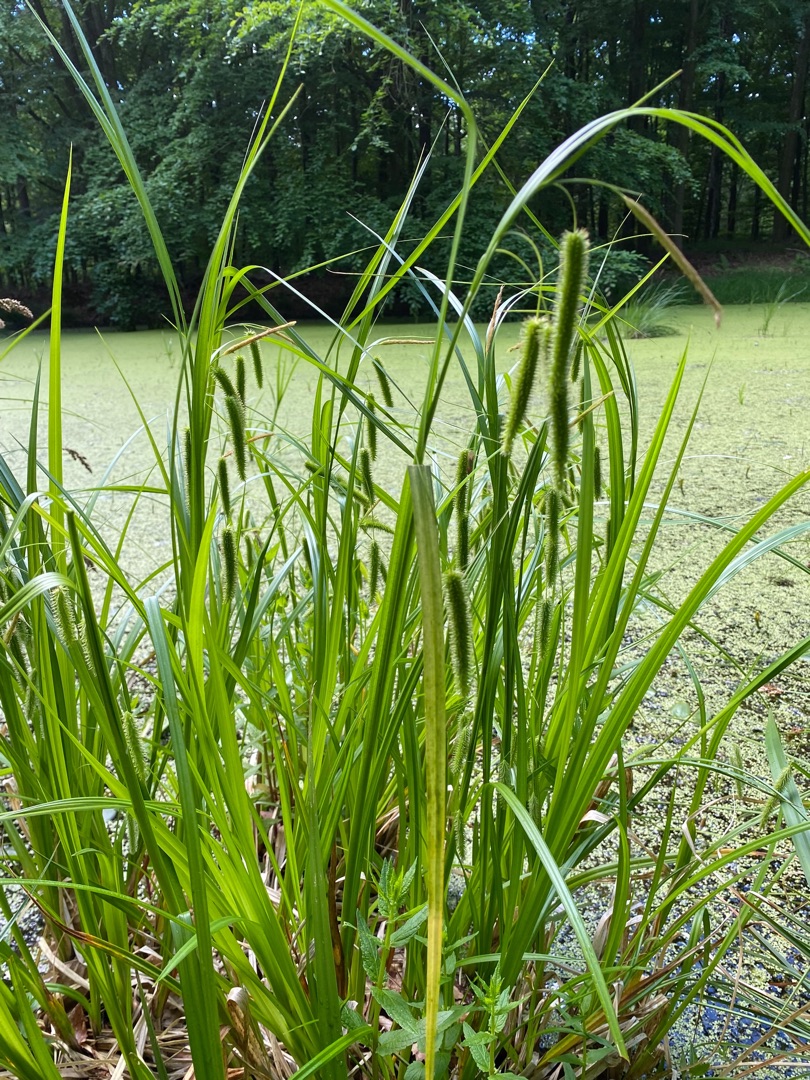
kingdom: Plantae
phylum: Tracheophyta
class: Liliopsida
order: Poales
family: Cyperaceae
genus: Carex
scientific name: Carex pseudocyperus
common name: Knippe-star
